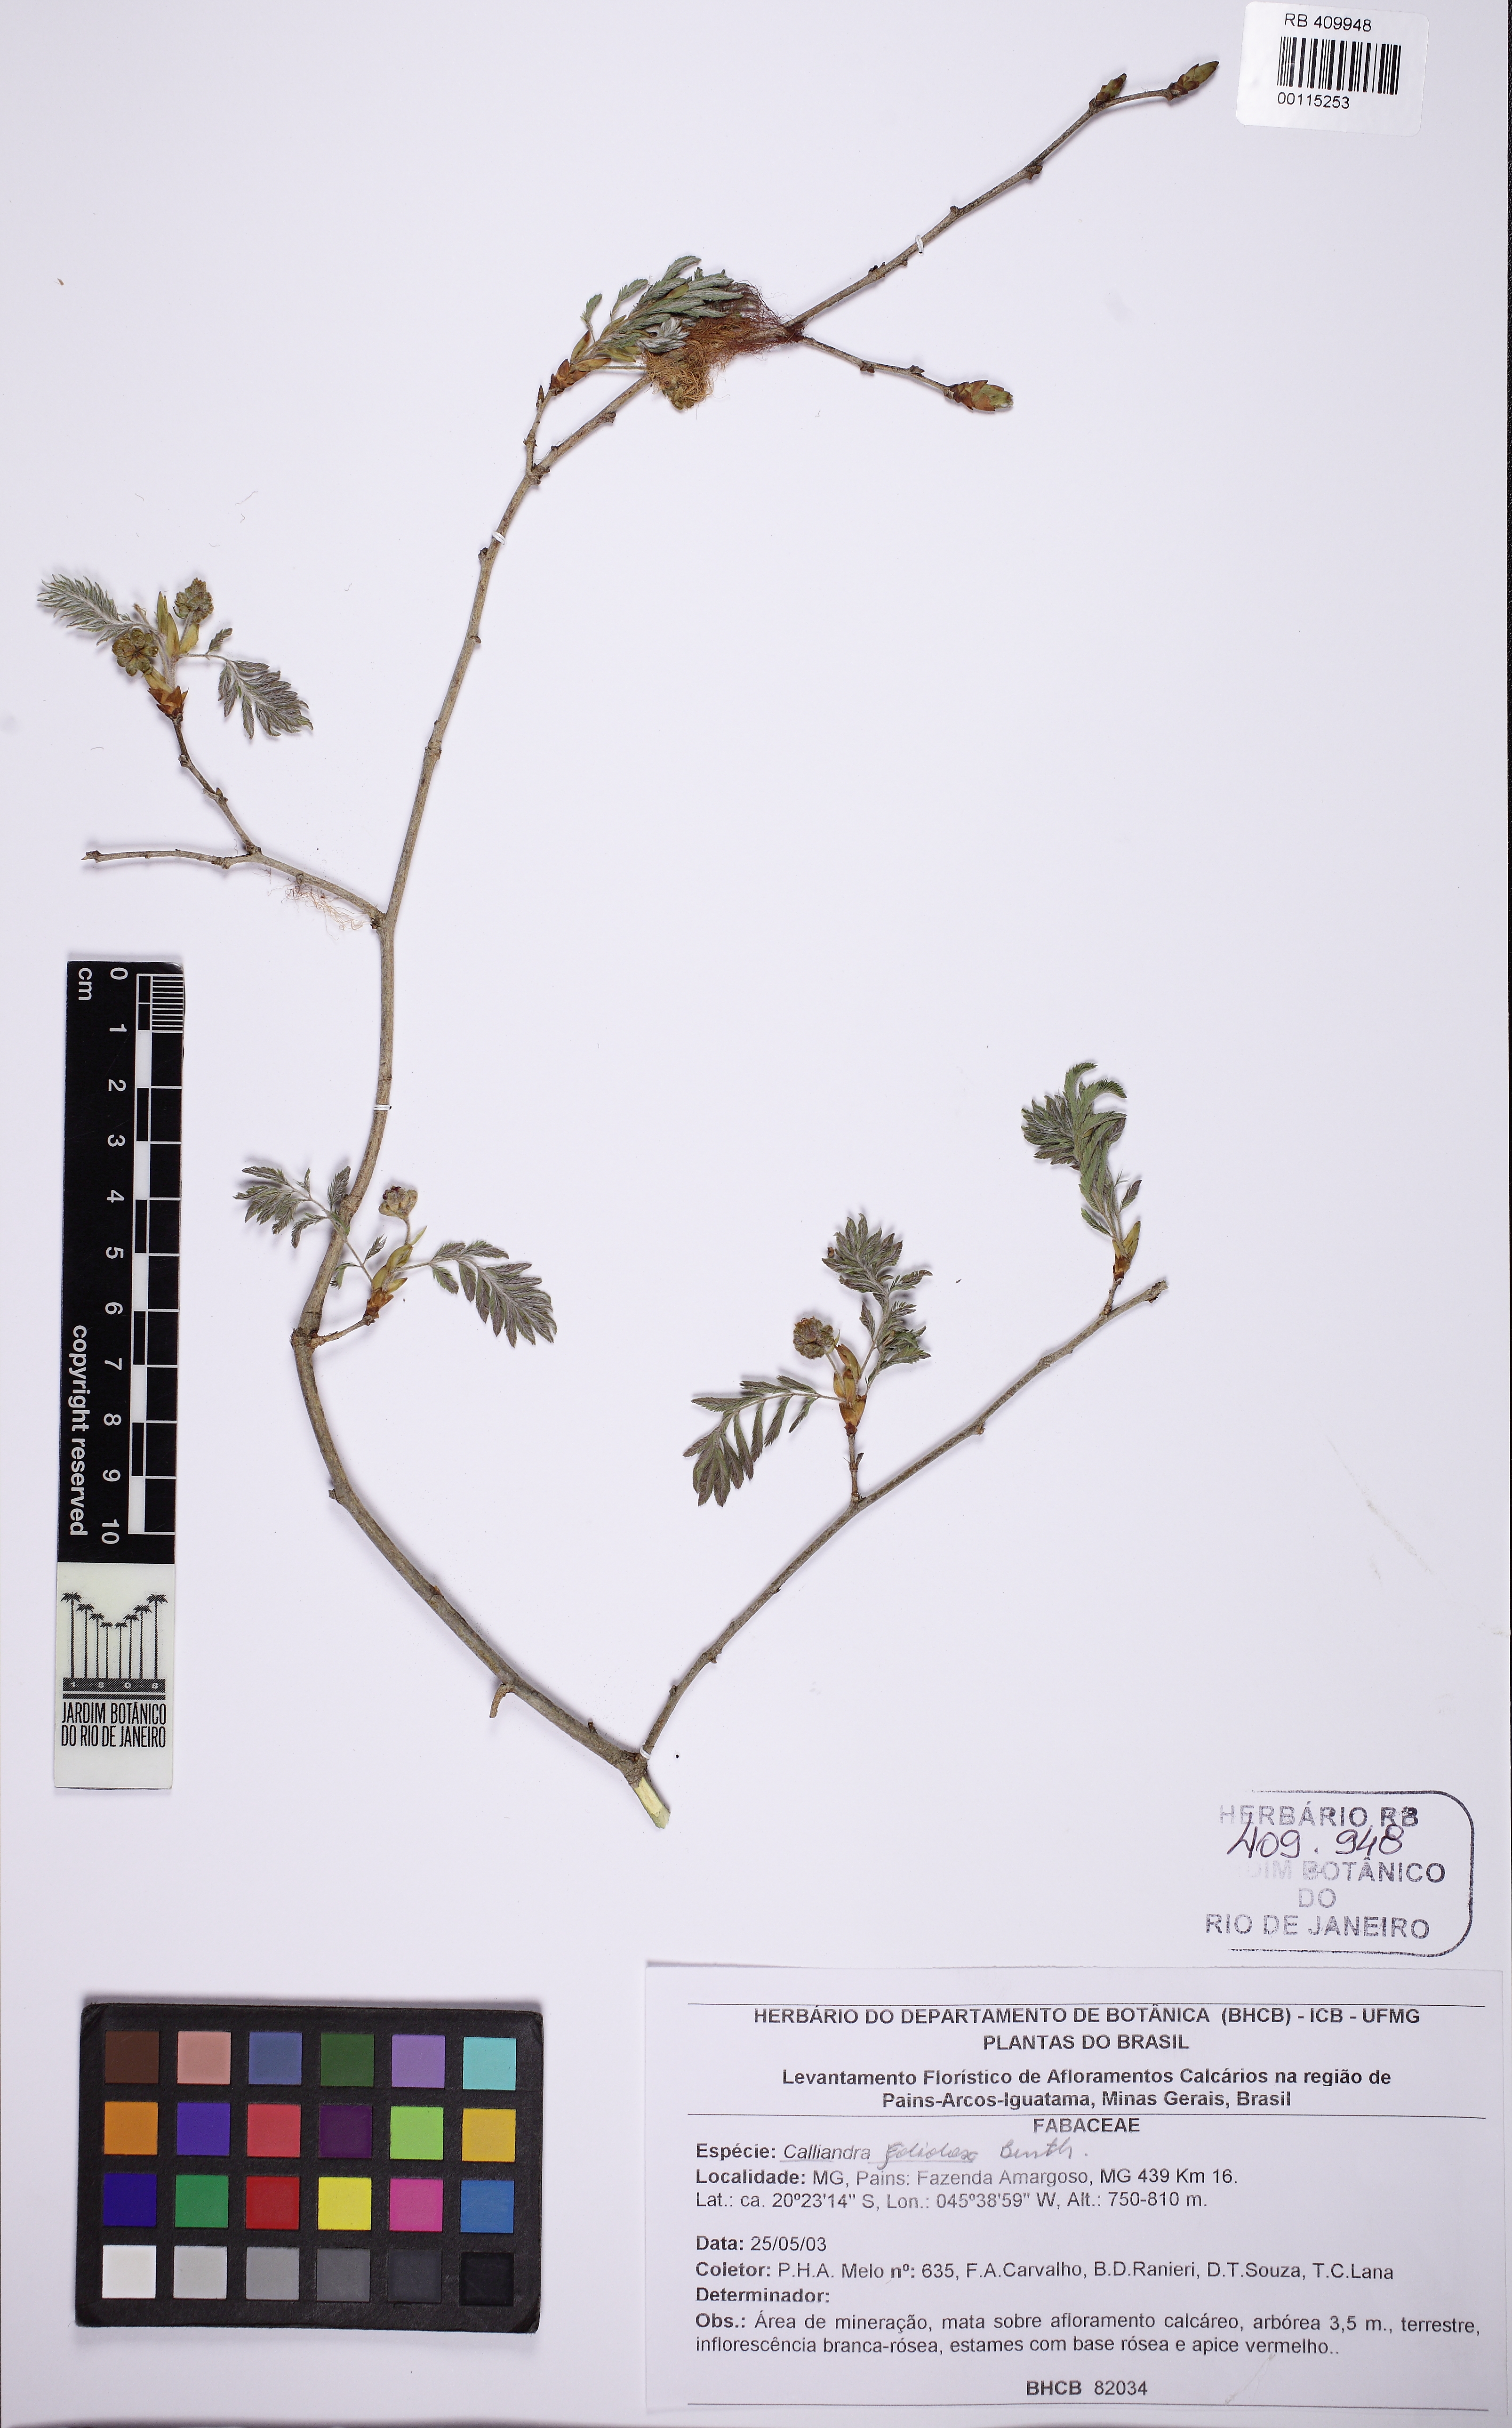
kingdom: Plantae
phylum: Tracheophyta
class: Magnoliopsida
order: Fabales
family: Fabaceae
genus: Calliandra
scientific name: Calliandra tweedii
